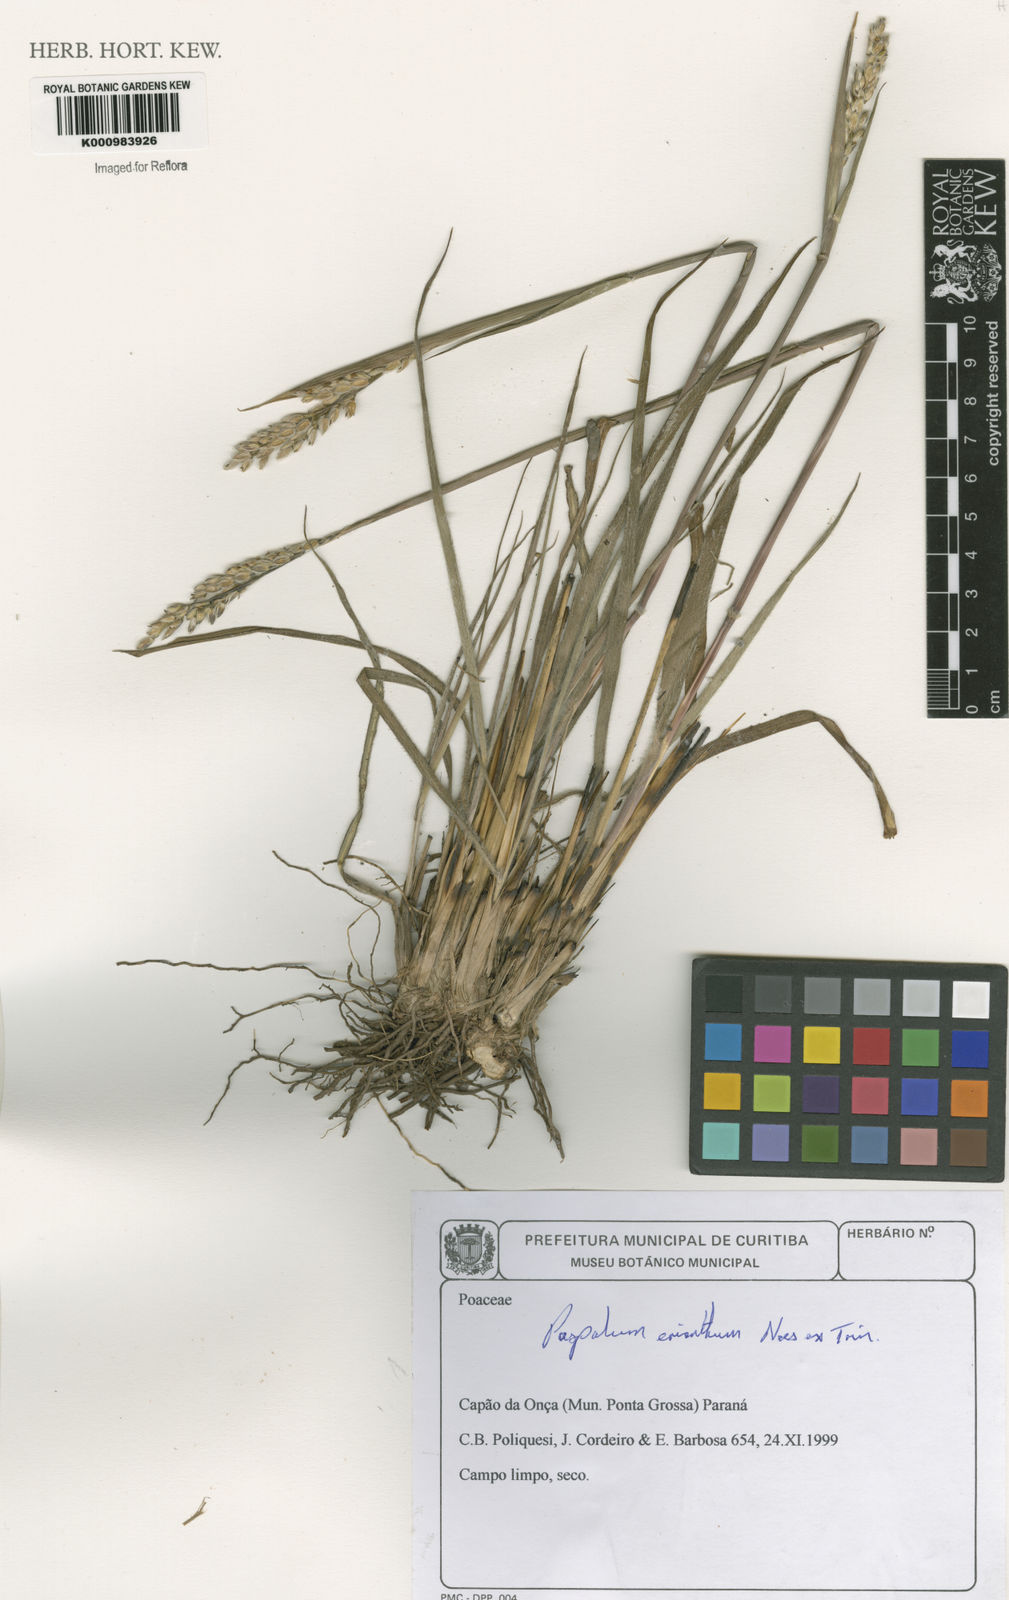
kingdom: Plantae
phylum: Tracheophyta
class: Liliopsida
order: Poales
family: Poaceae
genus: Paspalum
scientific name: Paspalum erianthum
